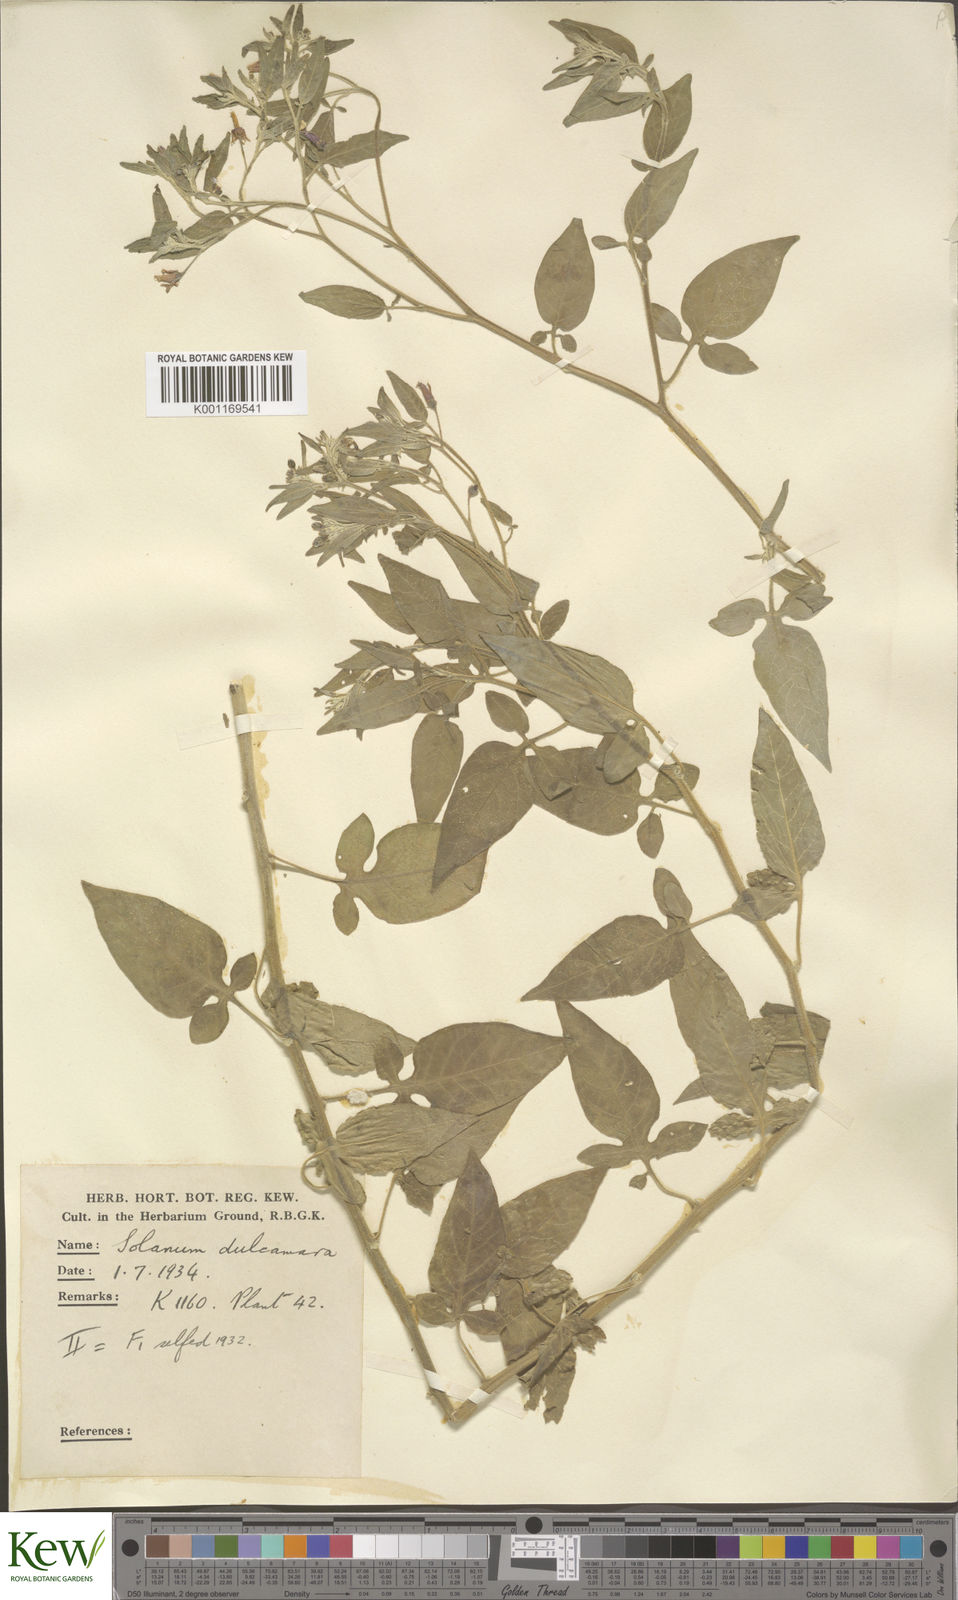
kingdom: Plantae
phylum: Tracheophyta
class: Magnoliopsida
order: Solanales
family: Solanaceae
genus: Solanum
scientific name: Solanum dulcamara
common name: Climbing nightshade
